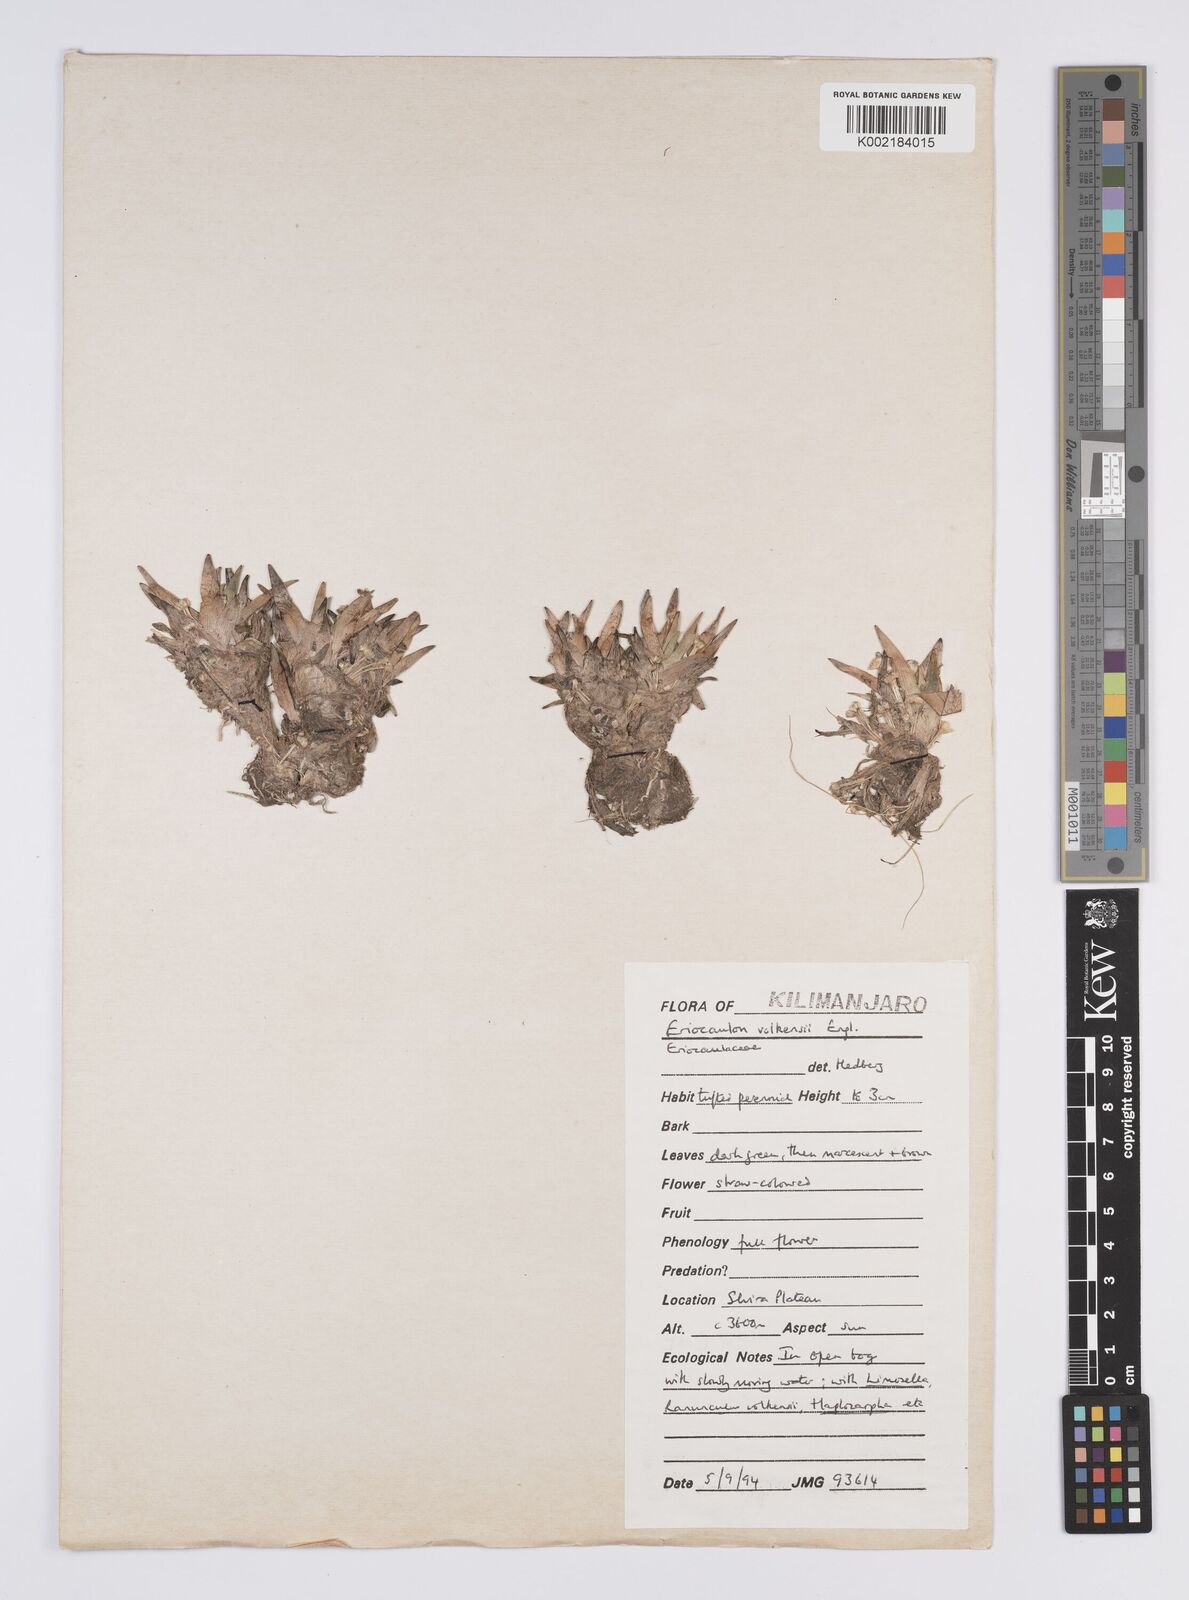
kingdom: Plantae
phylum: Tracheophyta
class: Liliopsida
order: Poales
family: Eriocaulaceae
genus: Eriocaulon
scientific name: Eriocaulon volkensii
